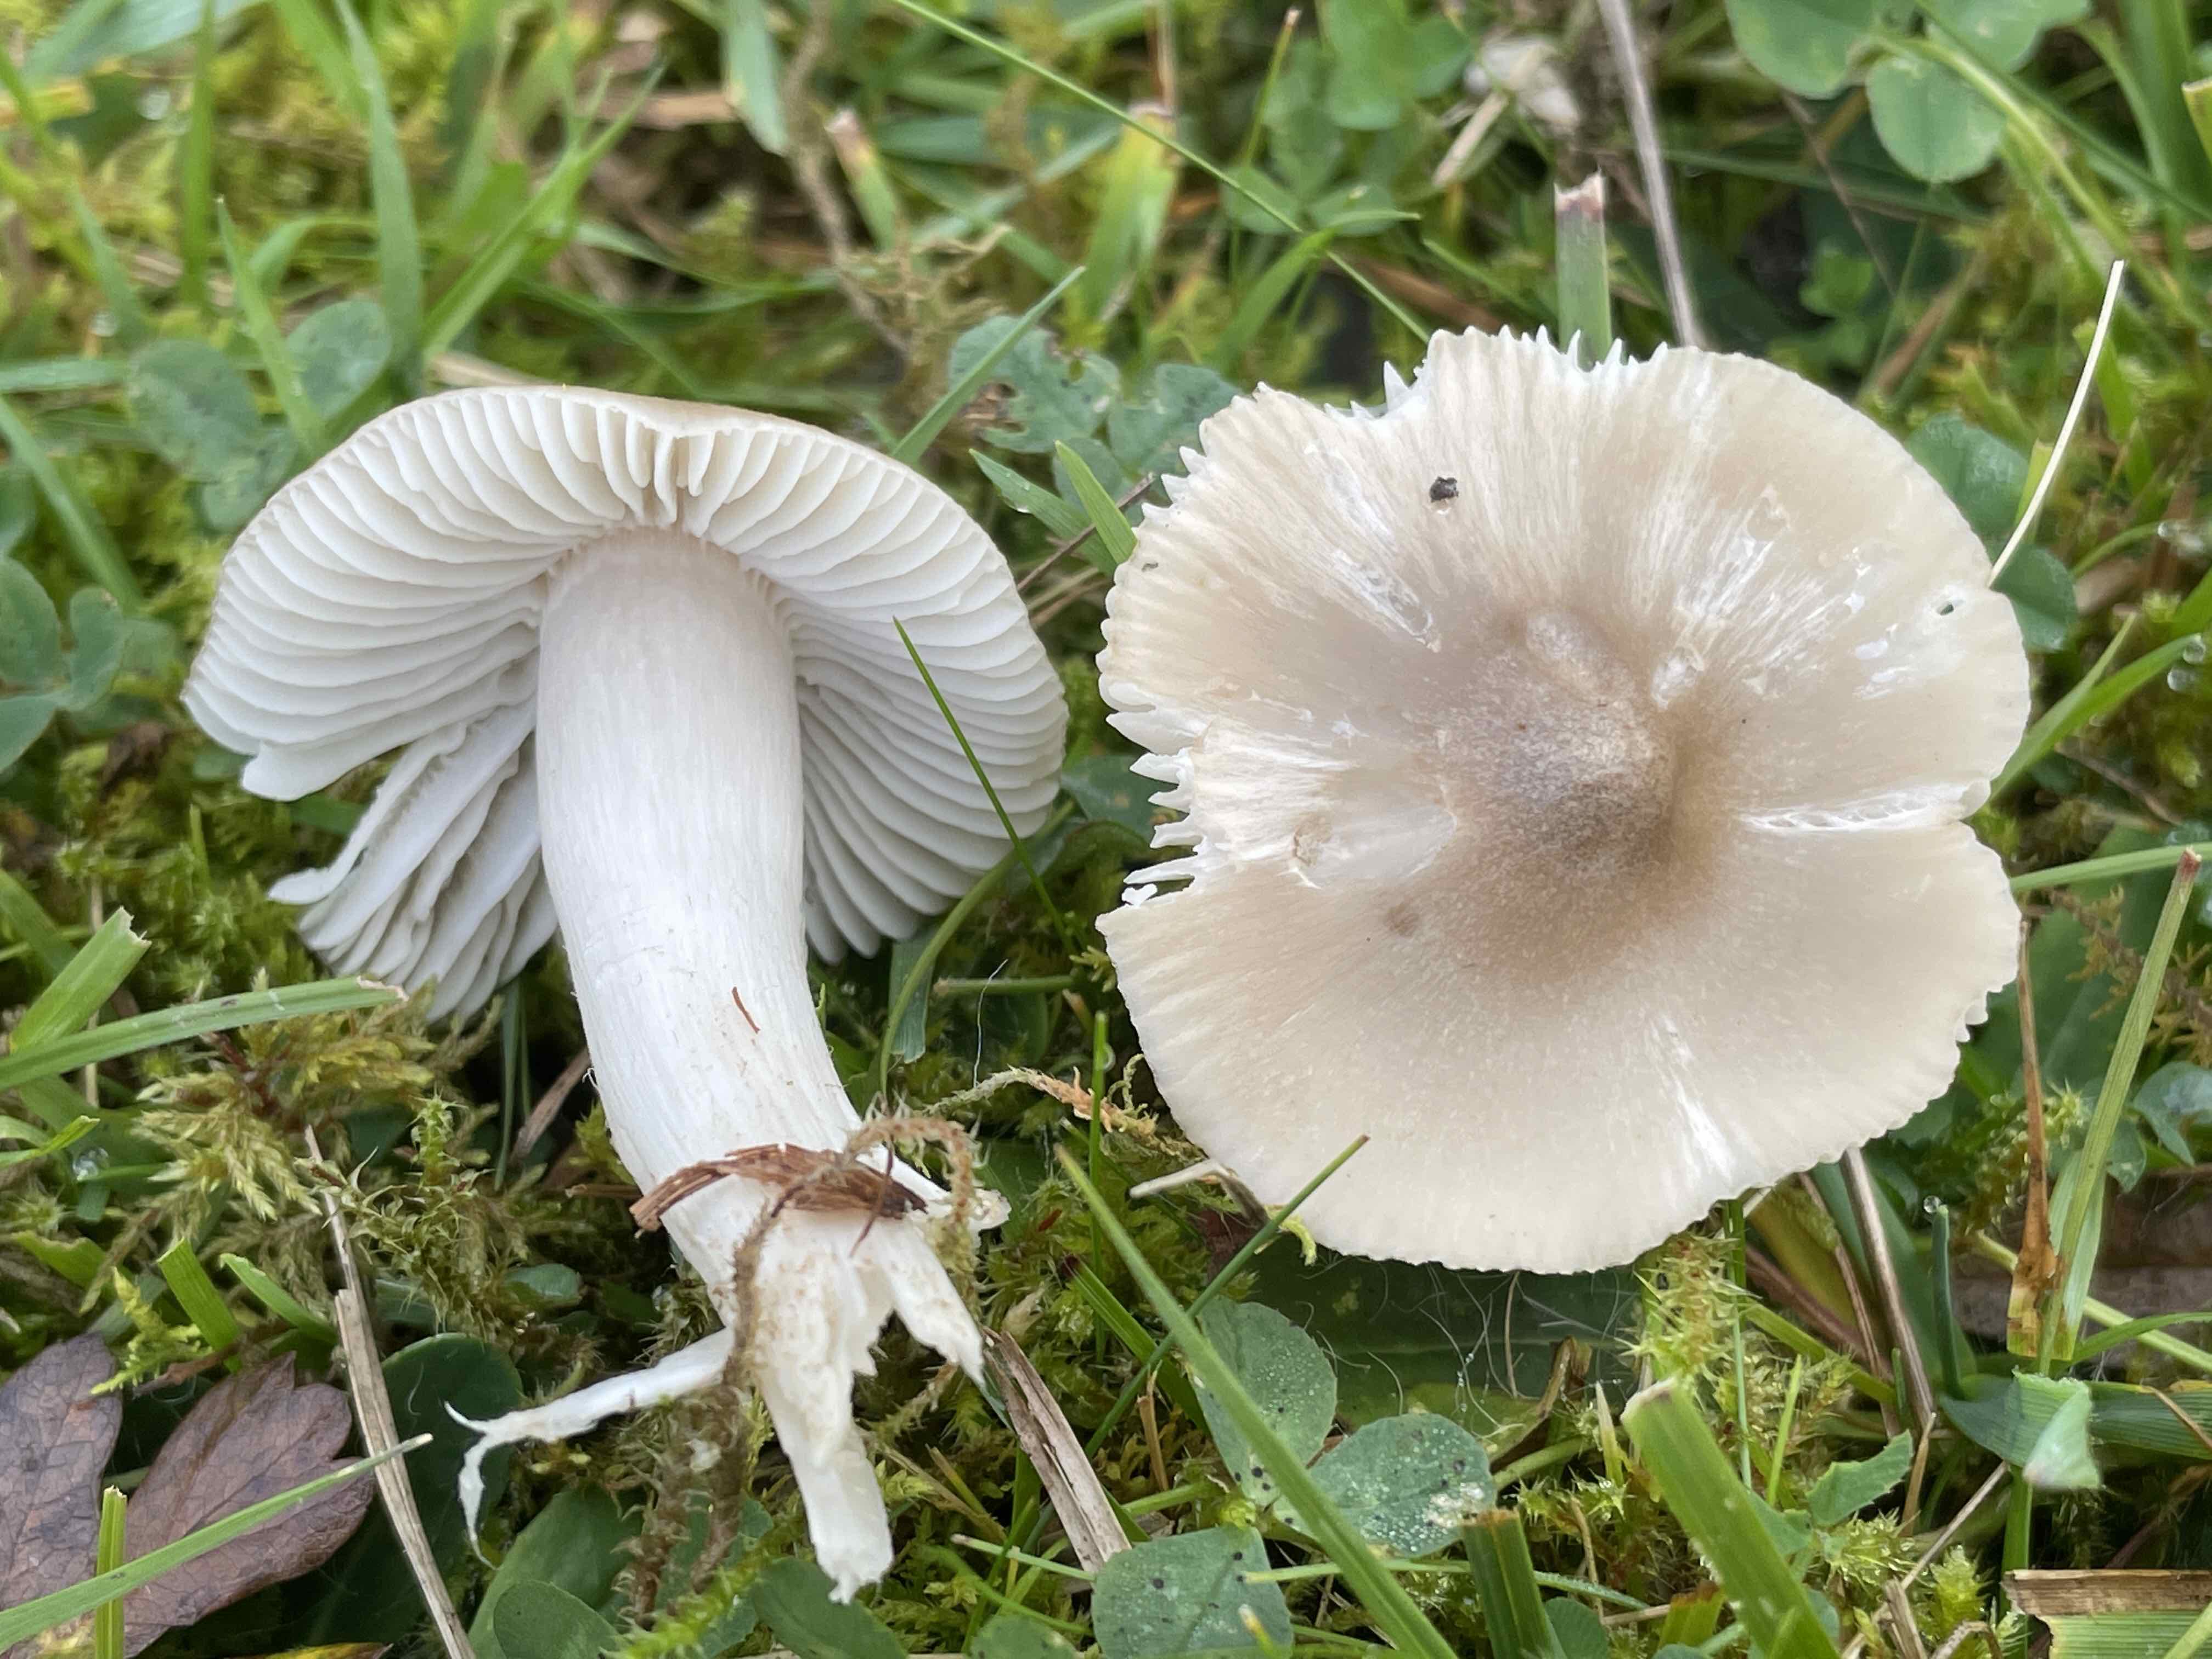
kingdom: Fungi
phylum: Basidiomycota
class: Agaricomycetes
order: Agaricales
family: Hygrophoraceae
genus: Cuphophyllus
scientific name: Cuphophyllus fornicatus
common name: gråbrun vokshat
